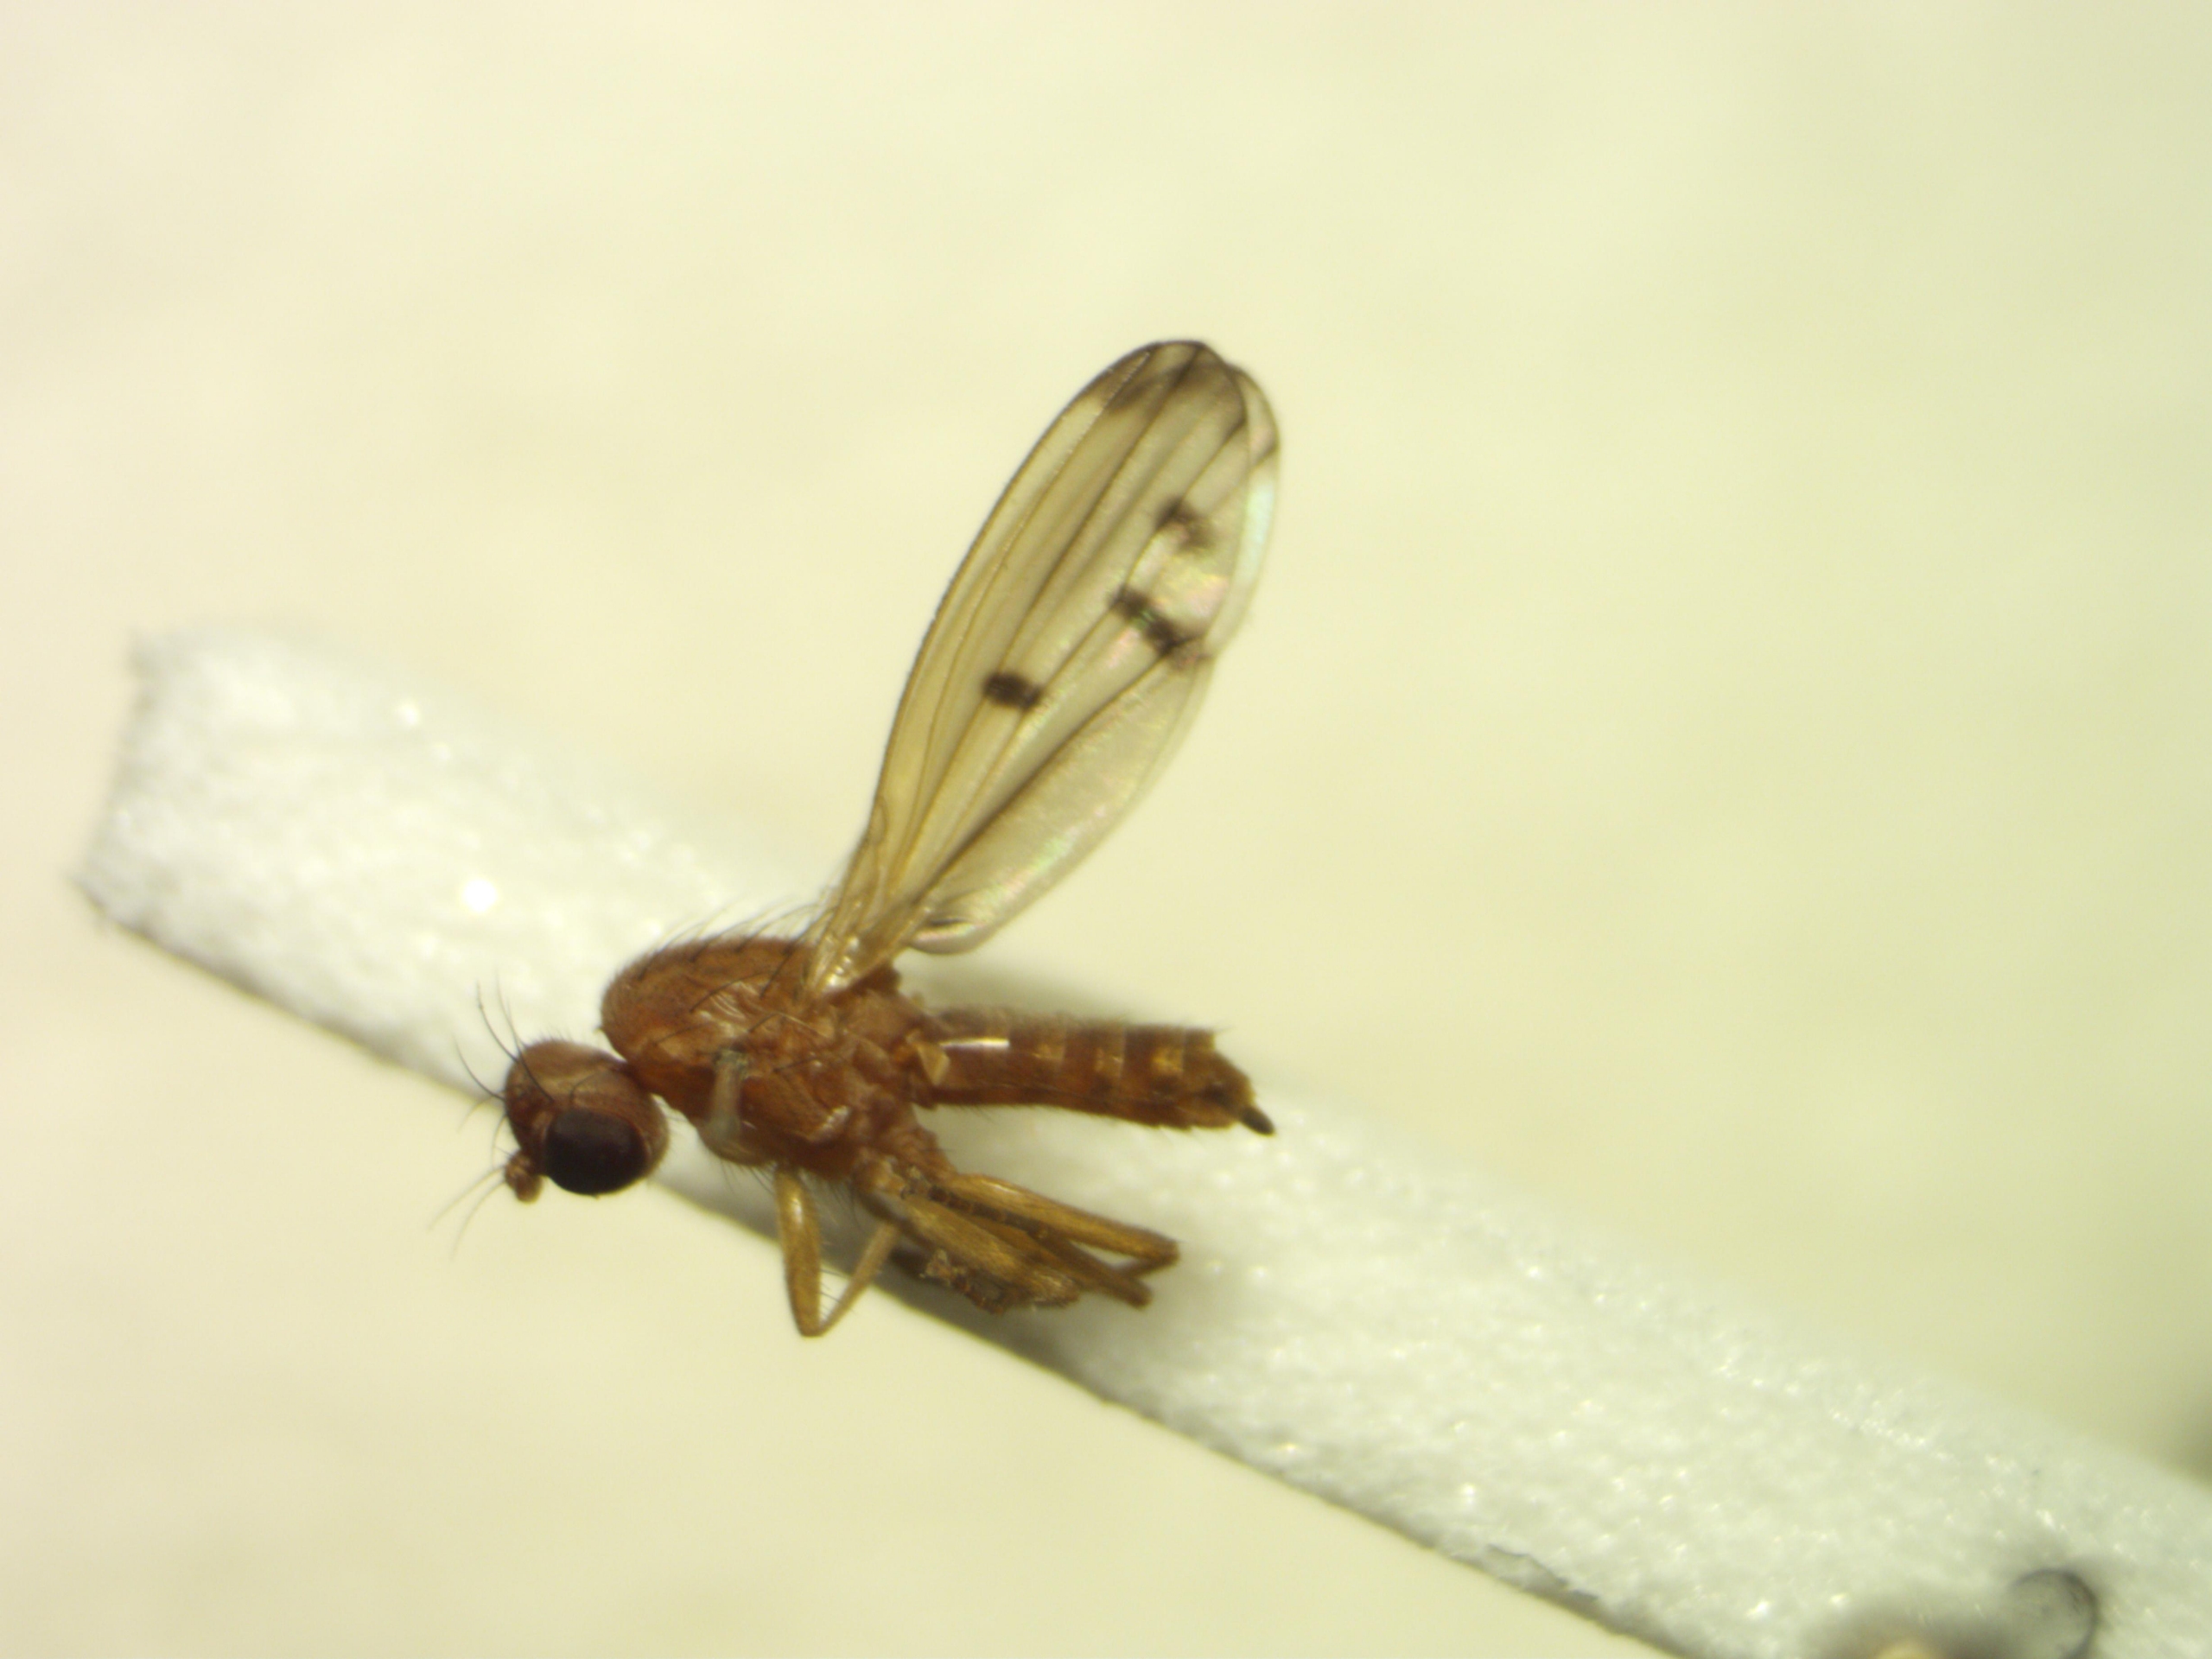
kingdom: Animalia
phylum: Arthropoda
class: Insecta
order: Diptera
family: Opomyzidae
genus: Opomyza
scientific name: Opomyza florum
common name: Gul græsflue
